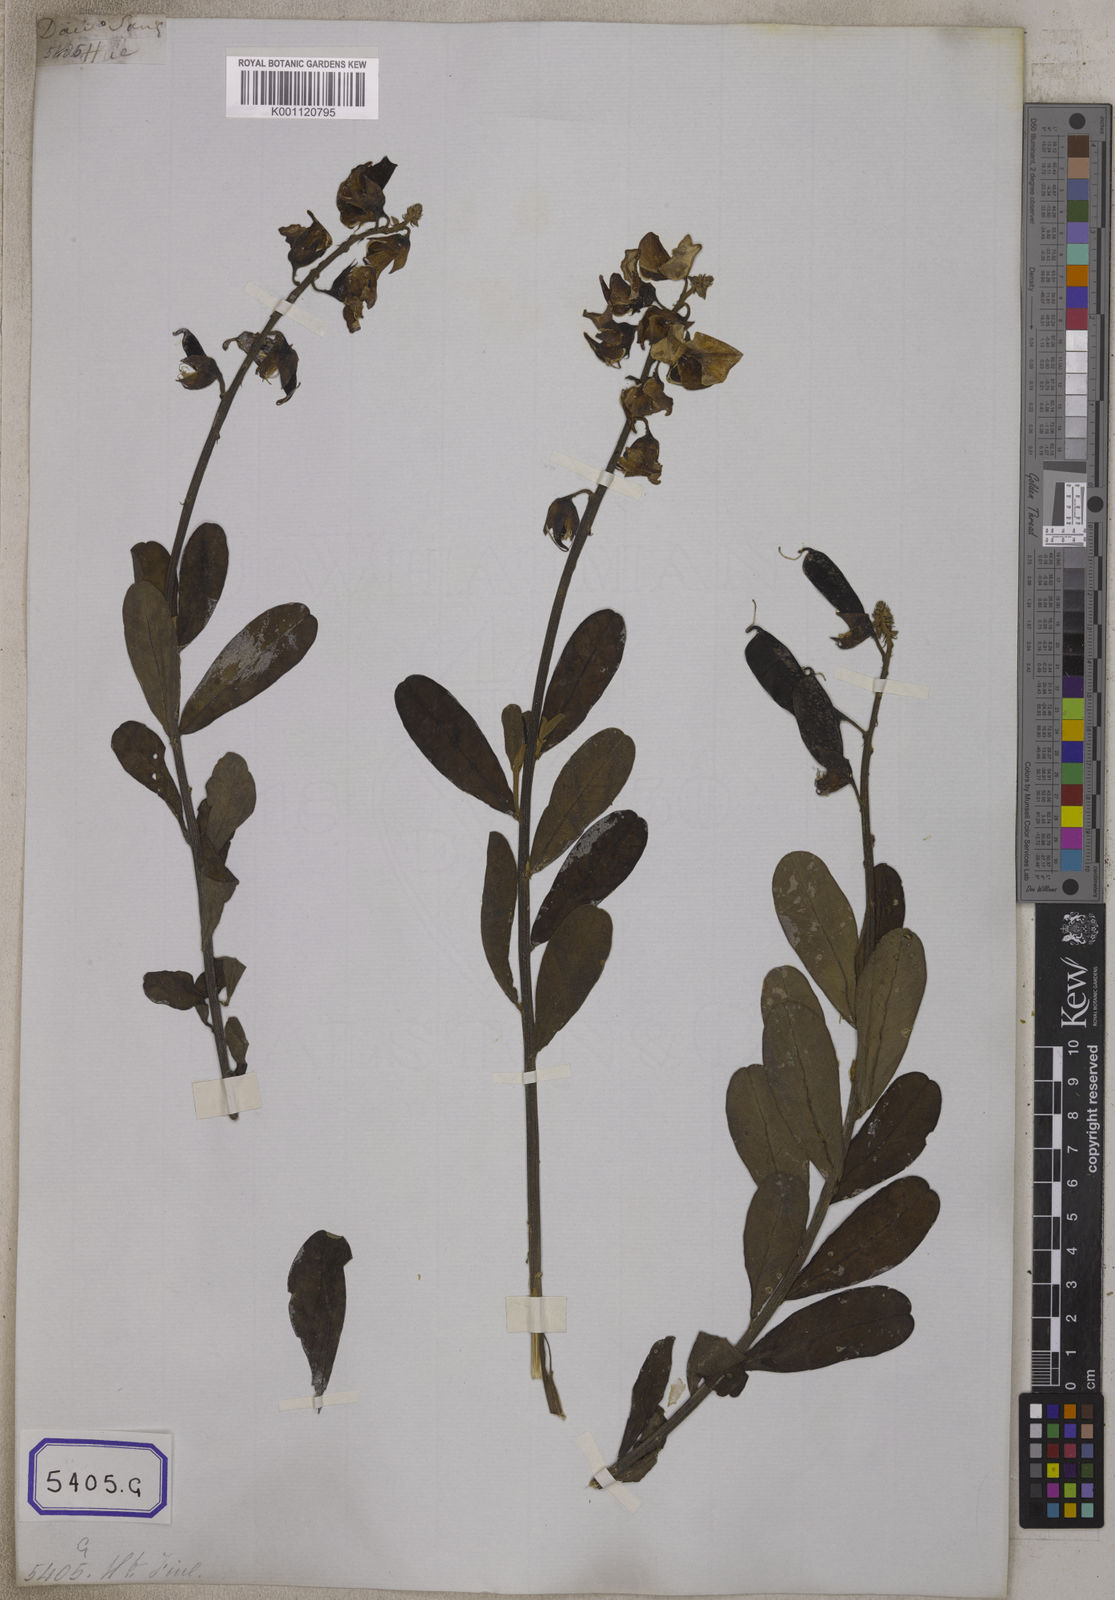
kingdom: Plantae
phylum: Tracheophyta
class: Magnoliopsida
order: Fabales
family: Fabaceae
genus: Crotalaria
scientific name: Crotalaria retusa
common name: Rattleweed
